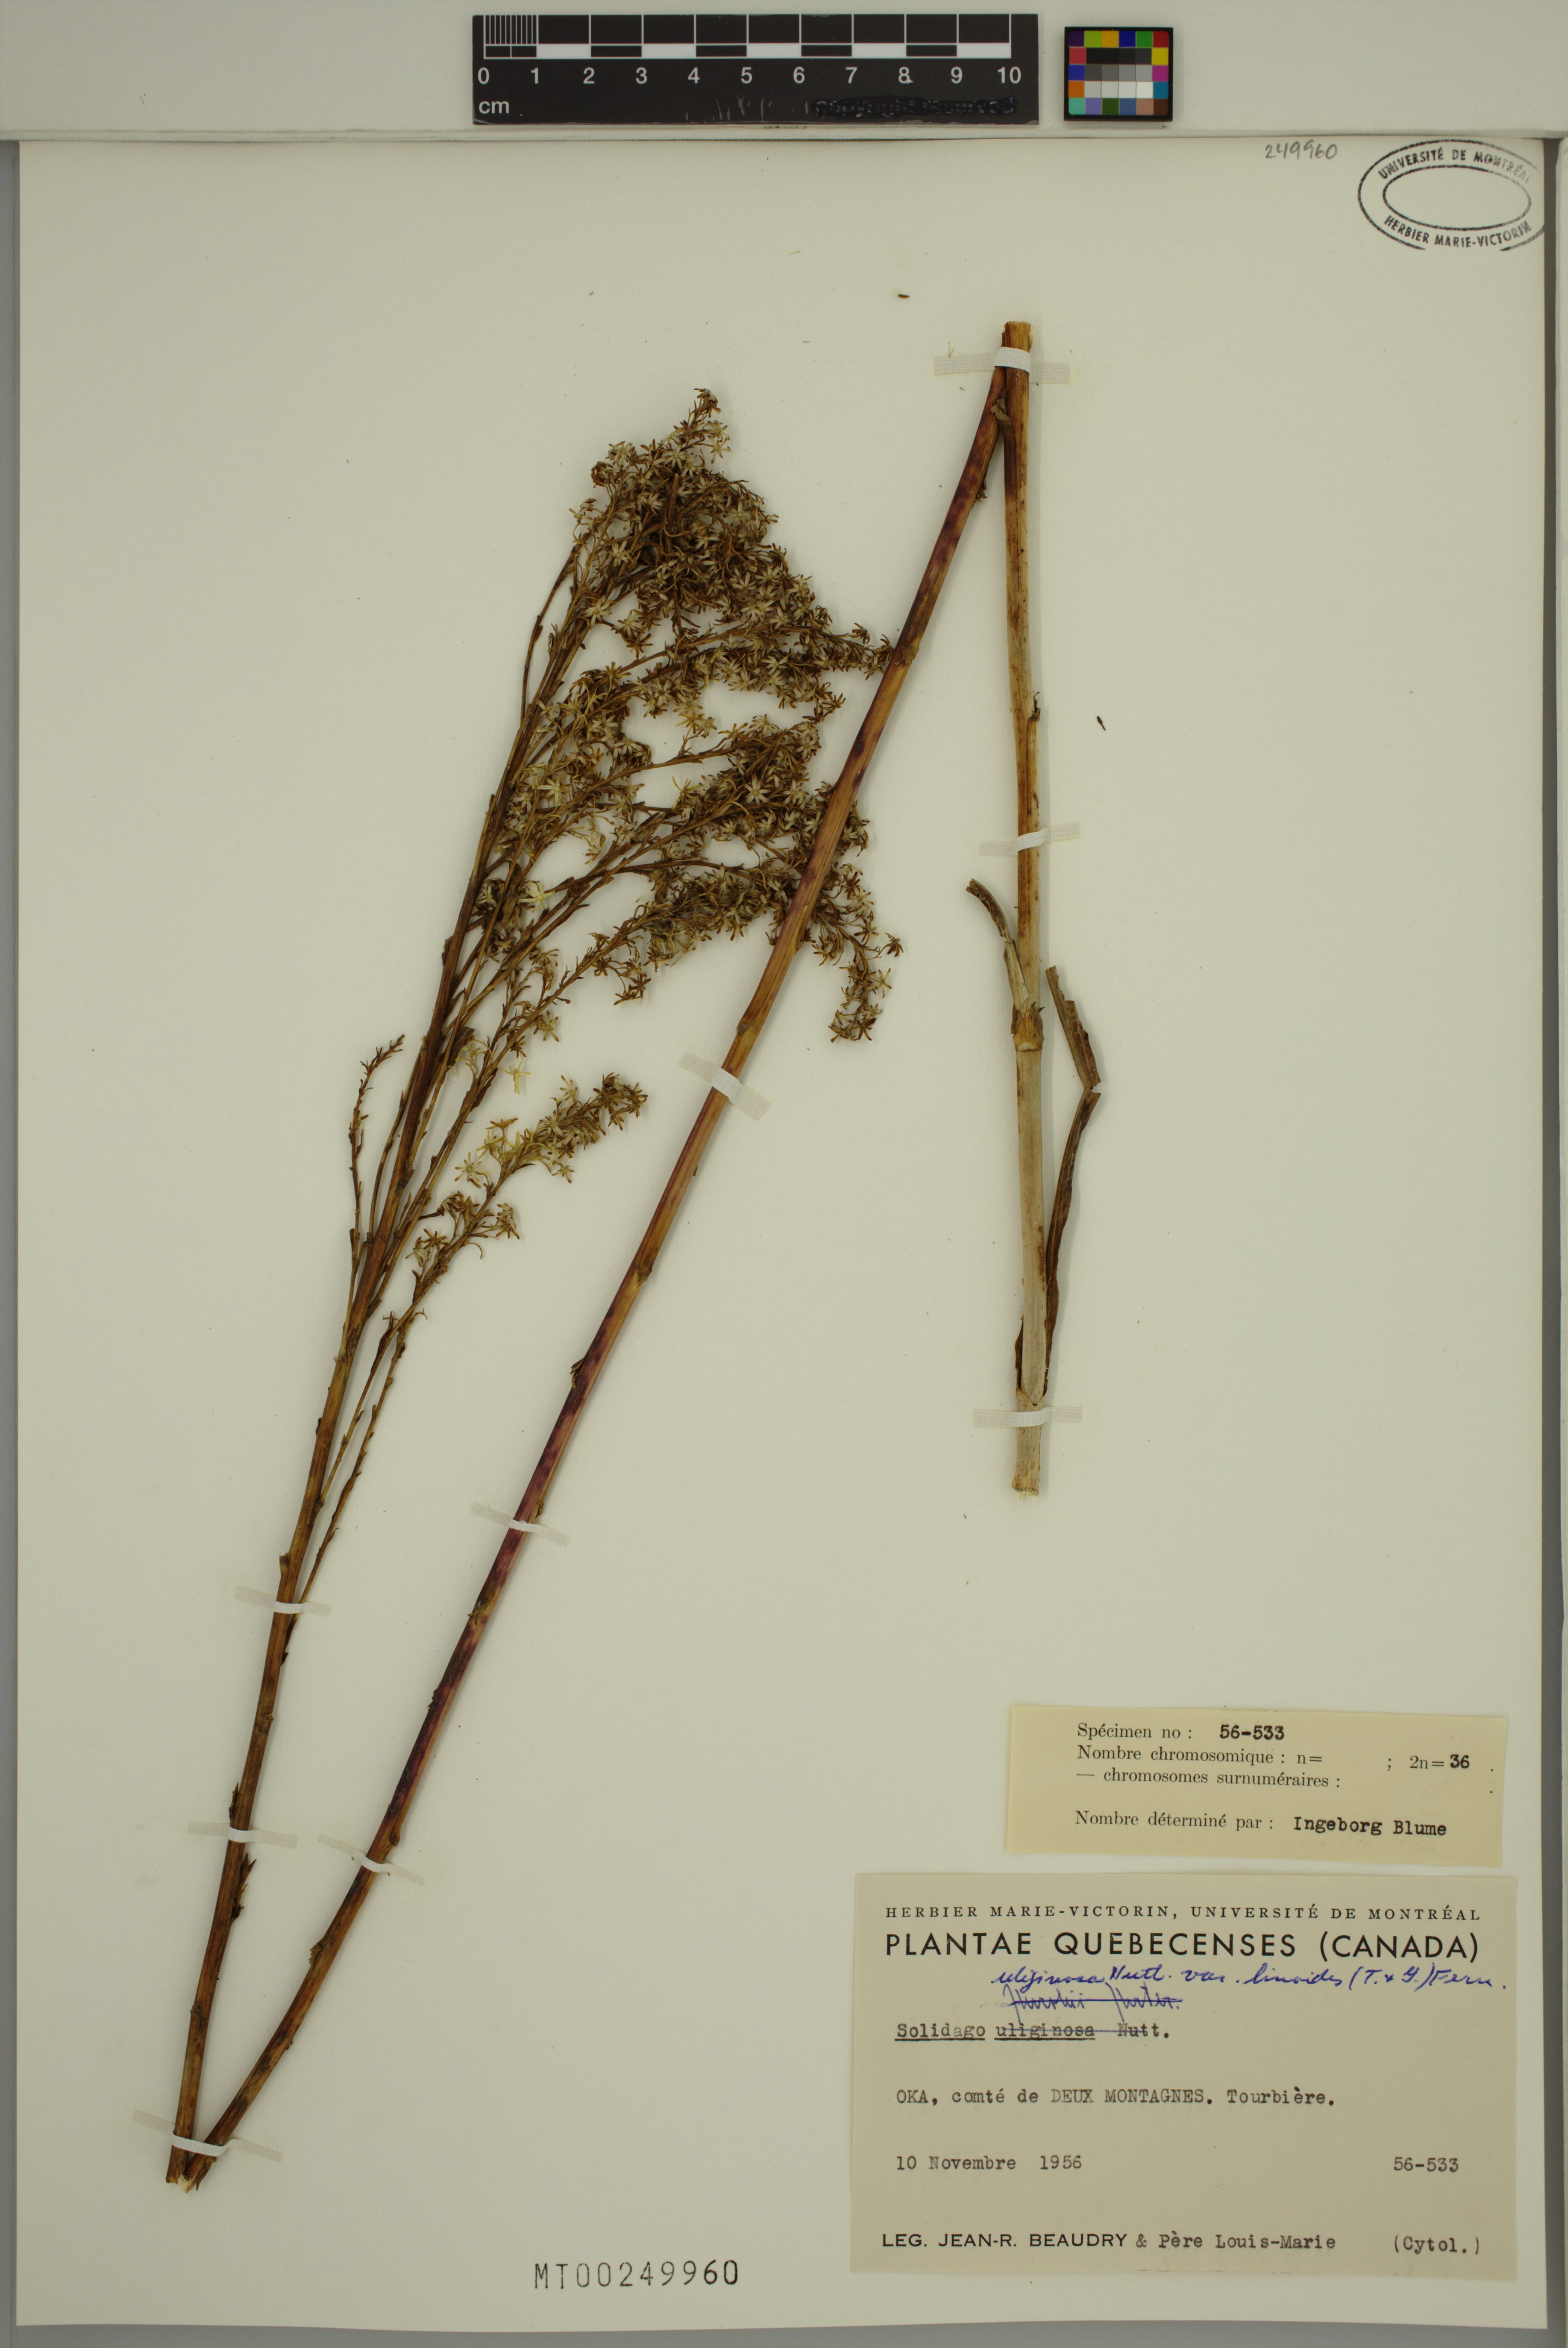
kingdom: Plantae
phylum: Tracheophyta
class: Magnoliopsida
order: Asterales
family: Asteraceae
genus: Solidago
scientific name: Solidago uliginosa
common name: Bog goldenrod
